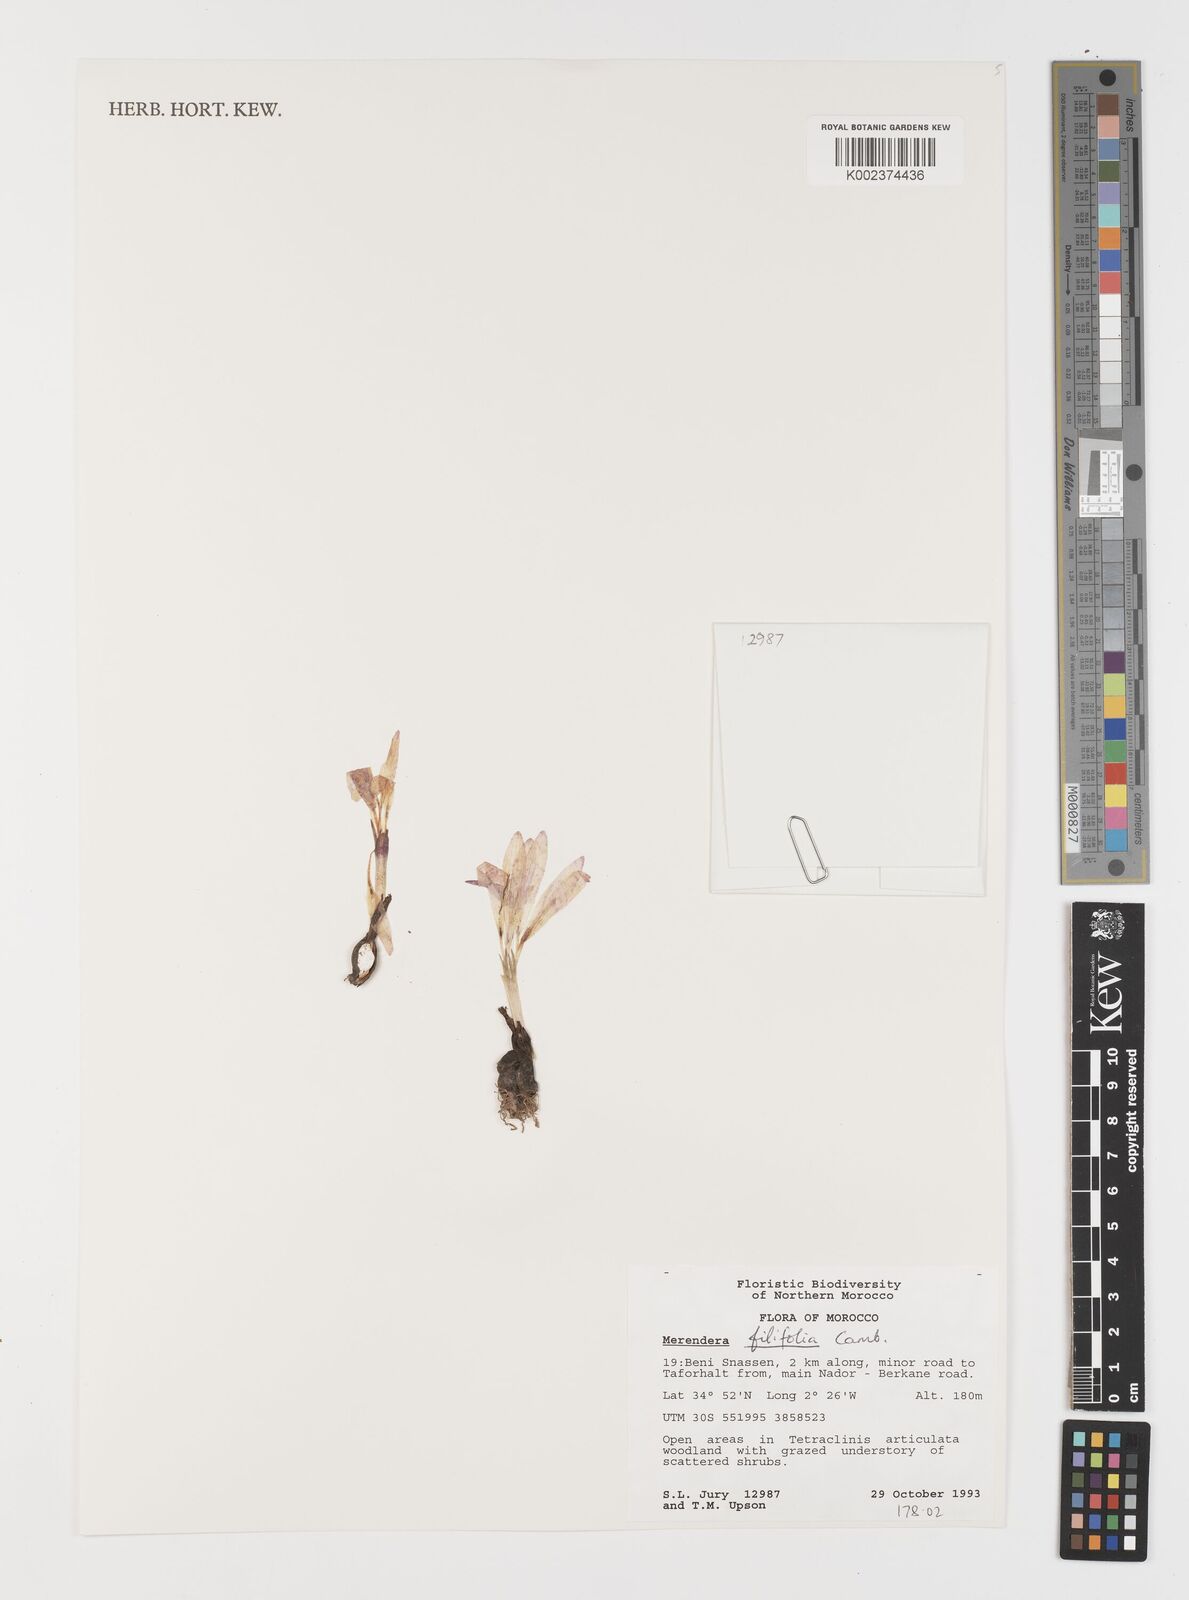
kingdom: Plantae
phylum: Tracheophyta
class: Liliopsida
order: Liliales
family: Colchicaceae
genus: Colchicum
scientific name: Colchicum filifolium
